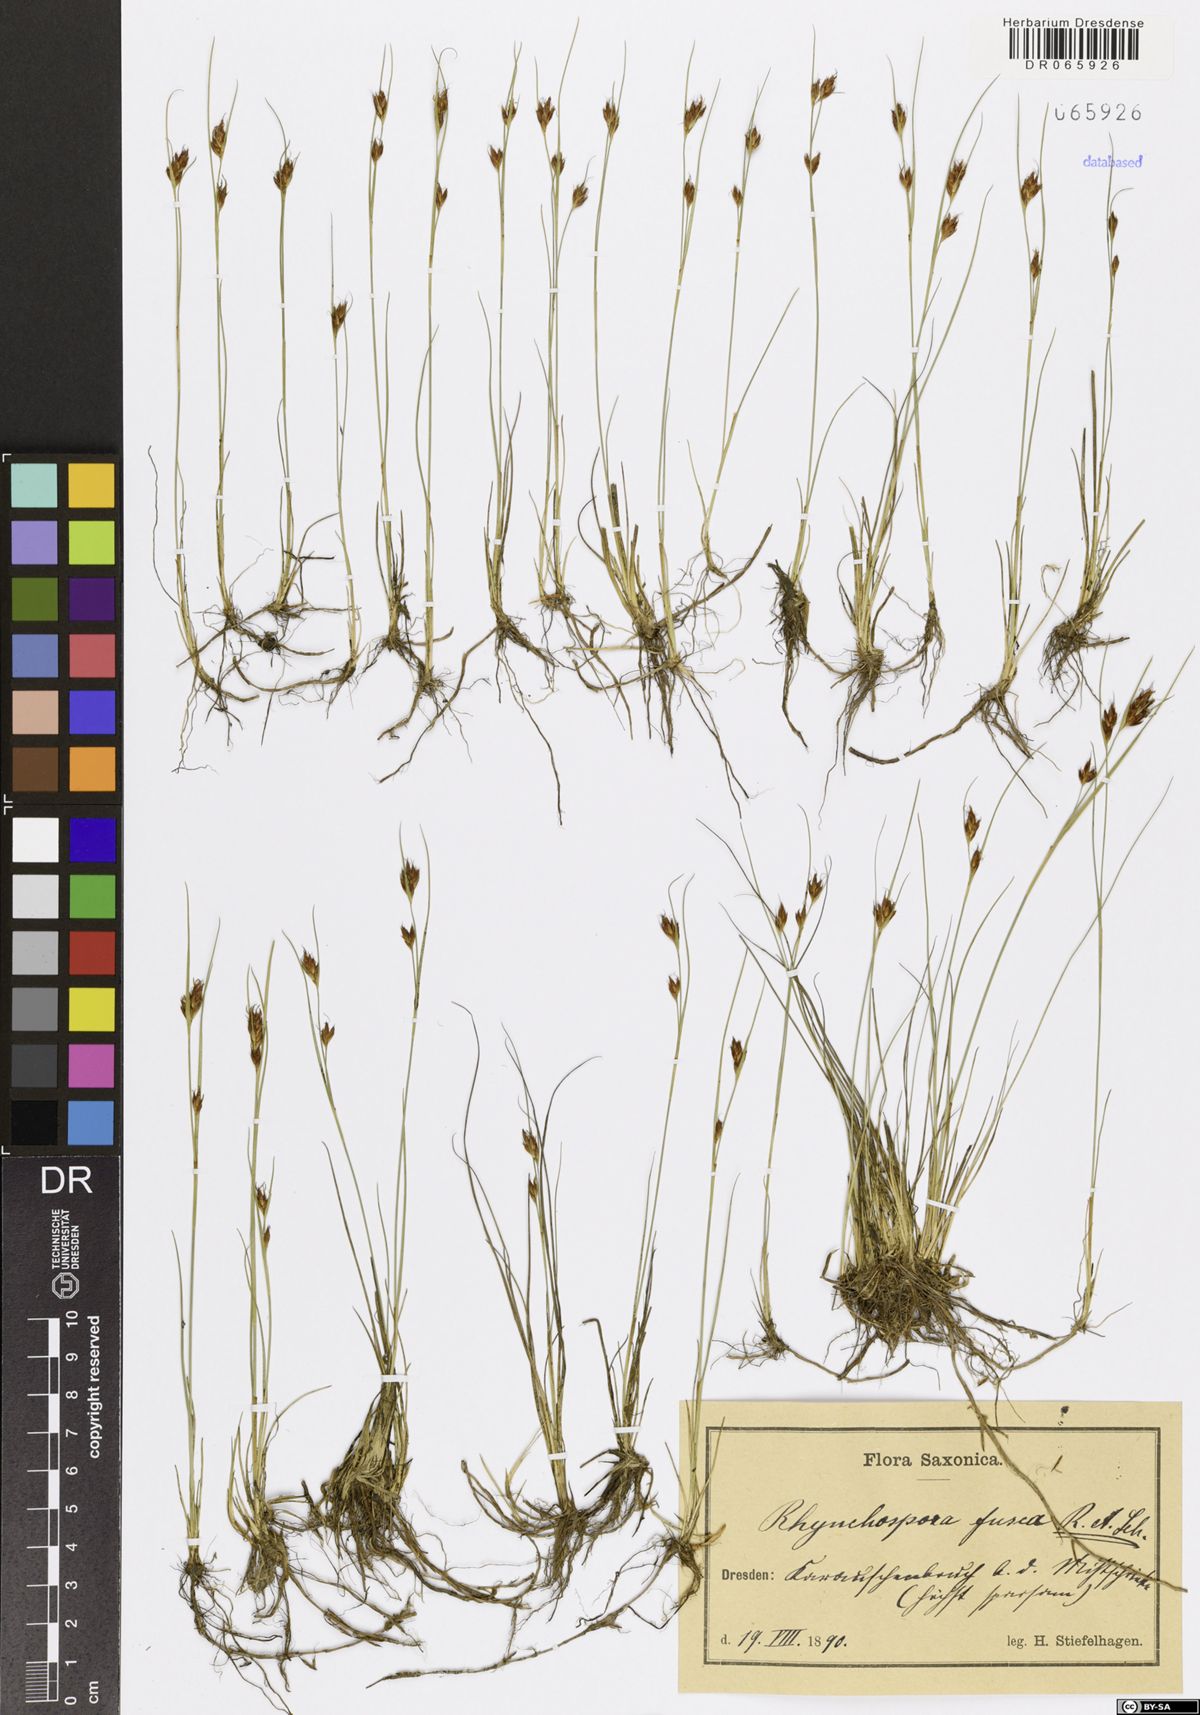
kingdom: Plantae
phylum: Tracheophyta
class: Liliopsida
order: Poales
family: Cyperaceae
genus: Rhynchospora
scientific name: Rhynchospora fusca
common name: Brown beak-sedge
